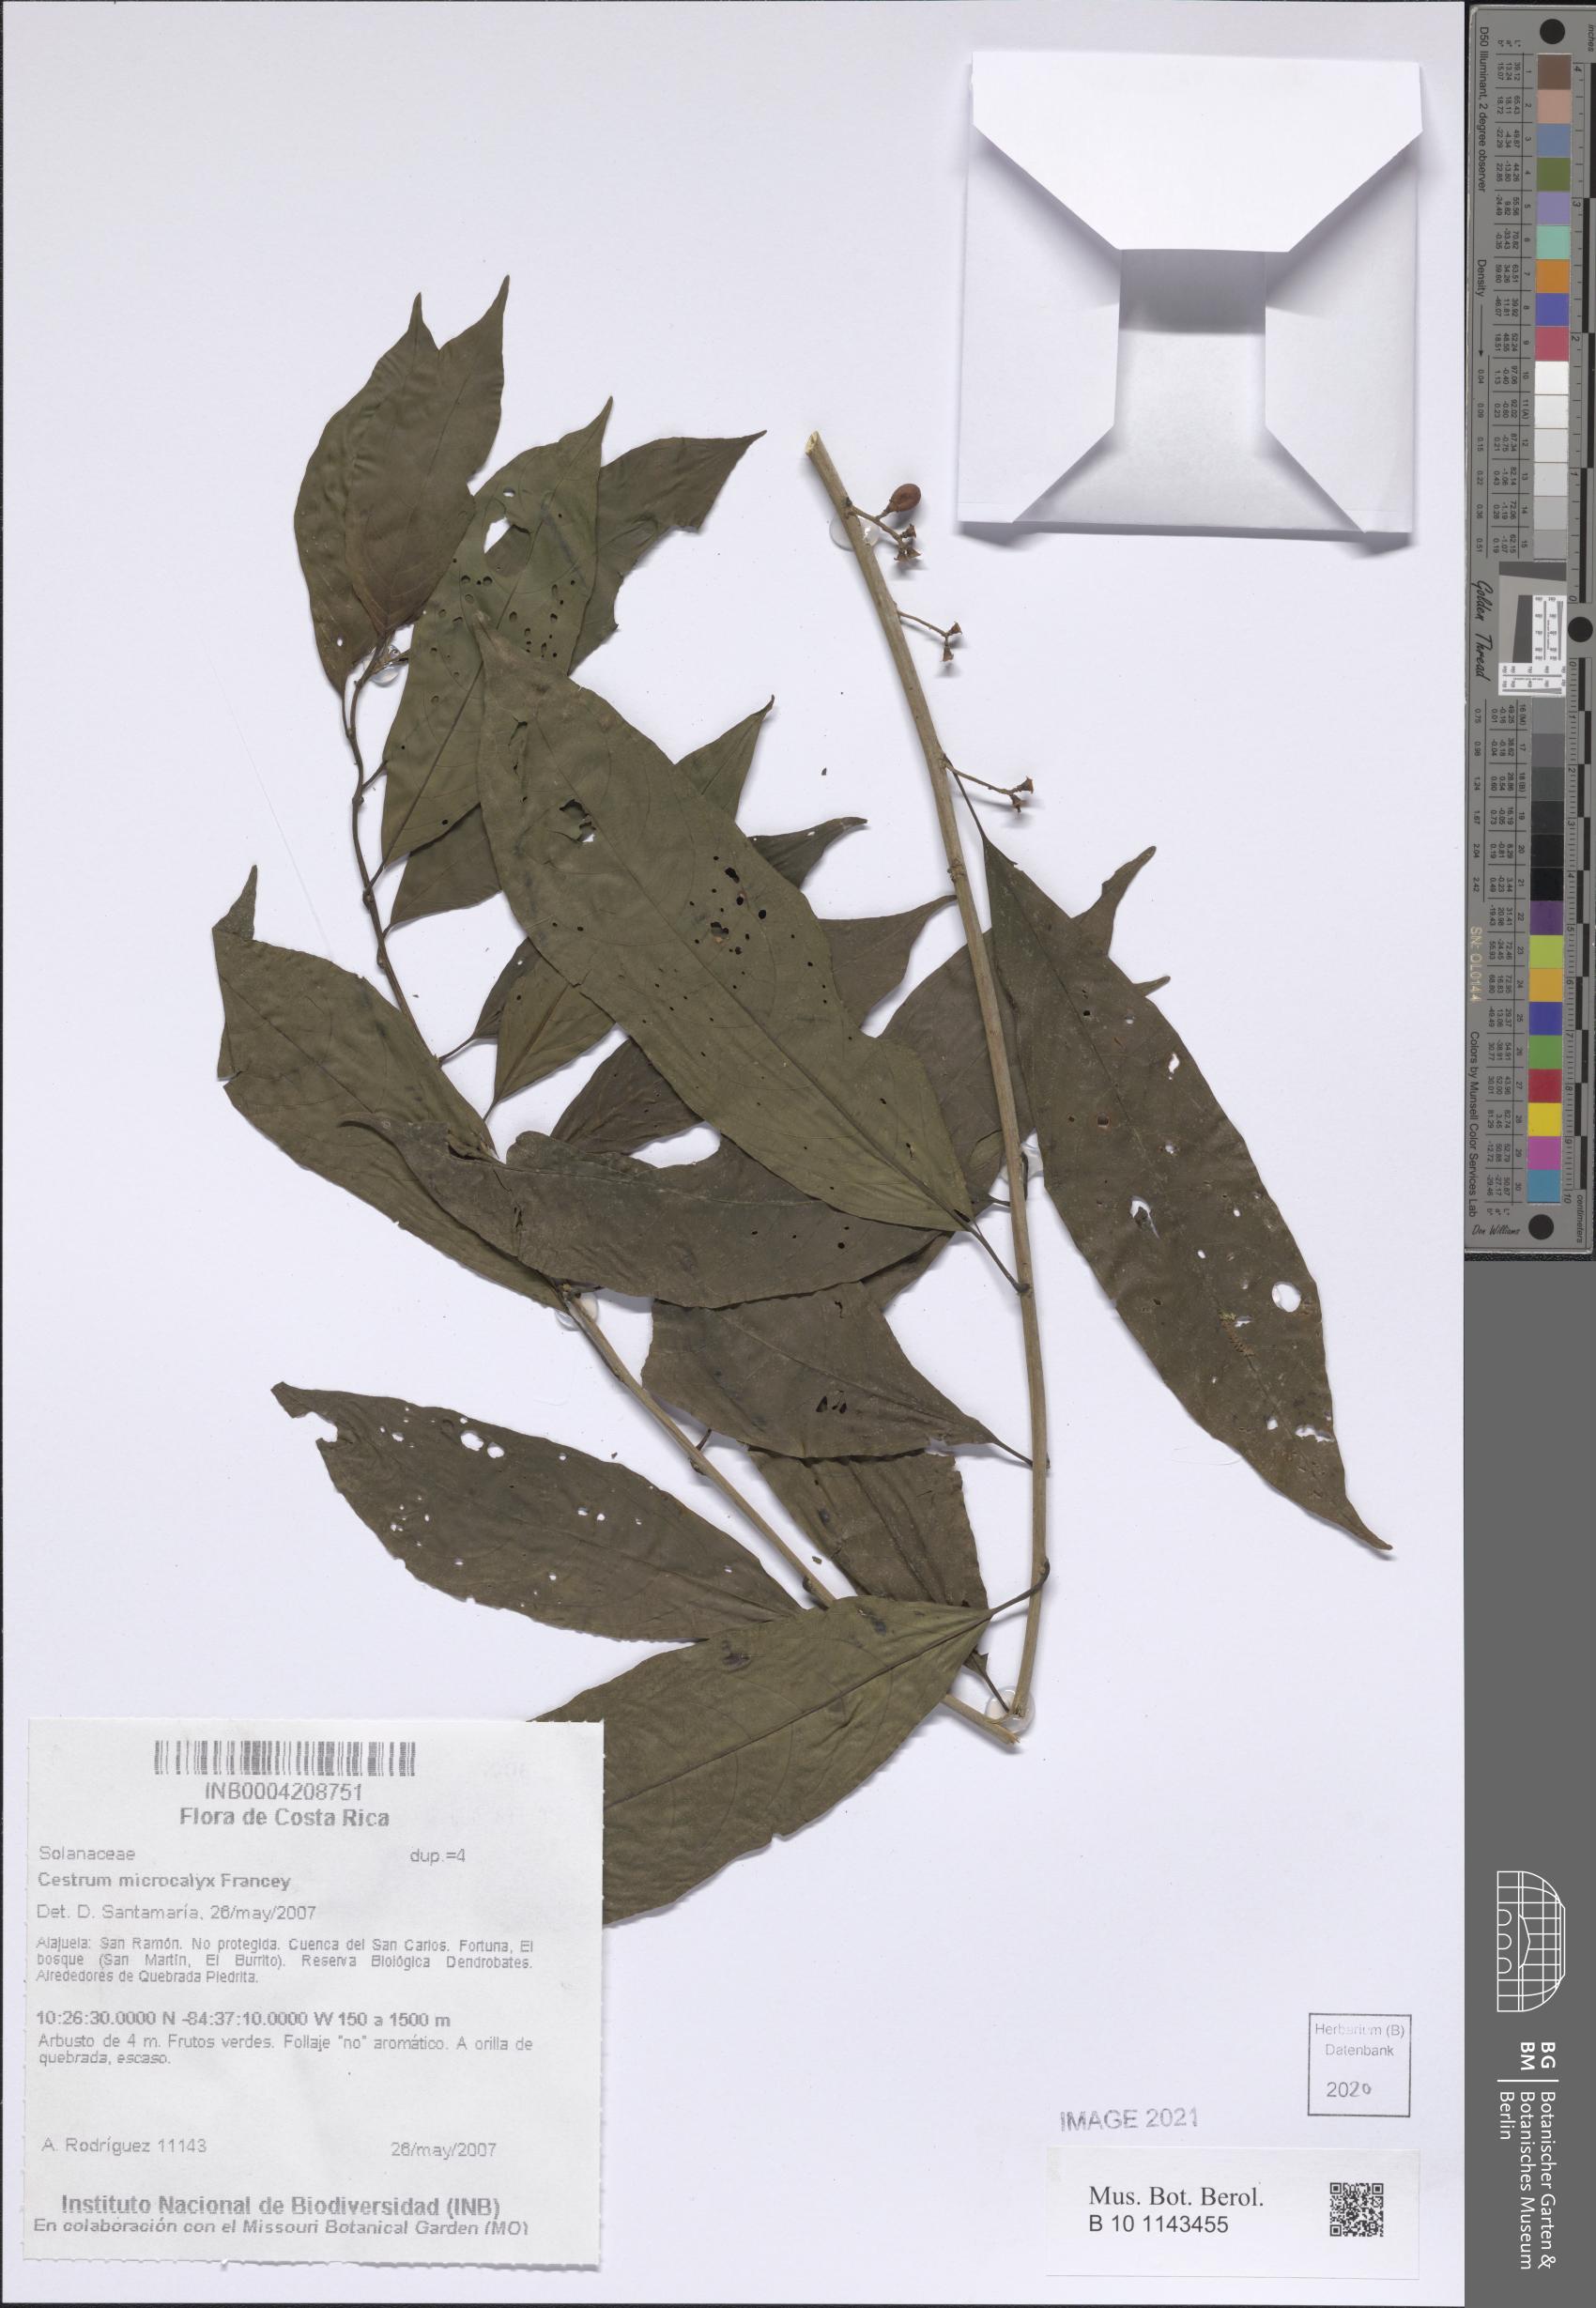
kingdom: Plantae
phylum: Tracheophyta
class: Magnoliopsida
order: Solanales
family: Solanaceae
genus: Cestrum
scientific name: Cestrum microcalyx
